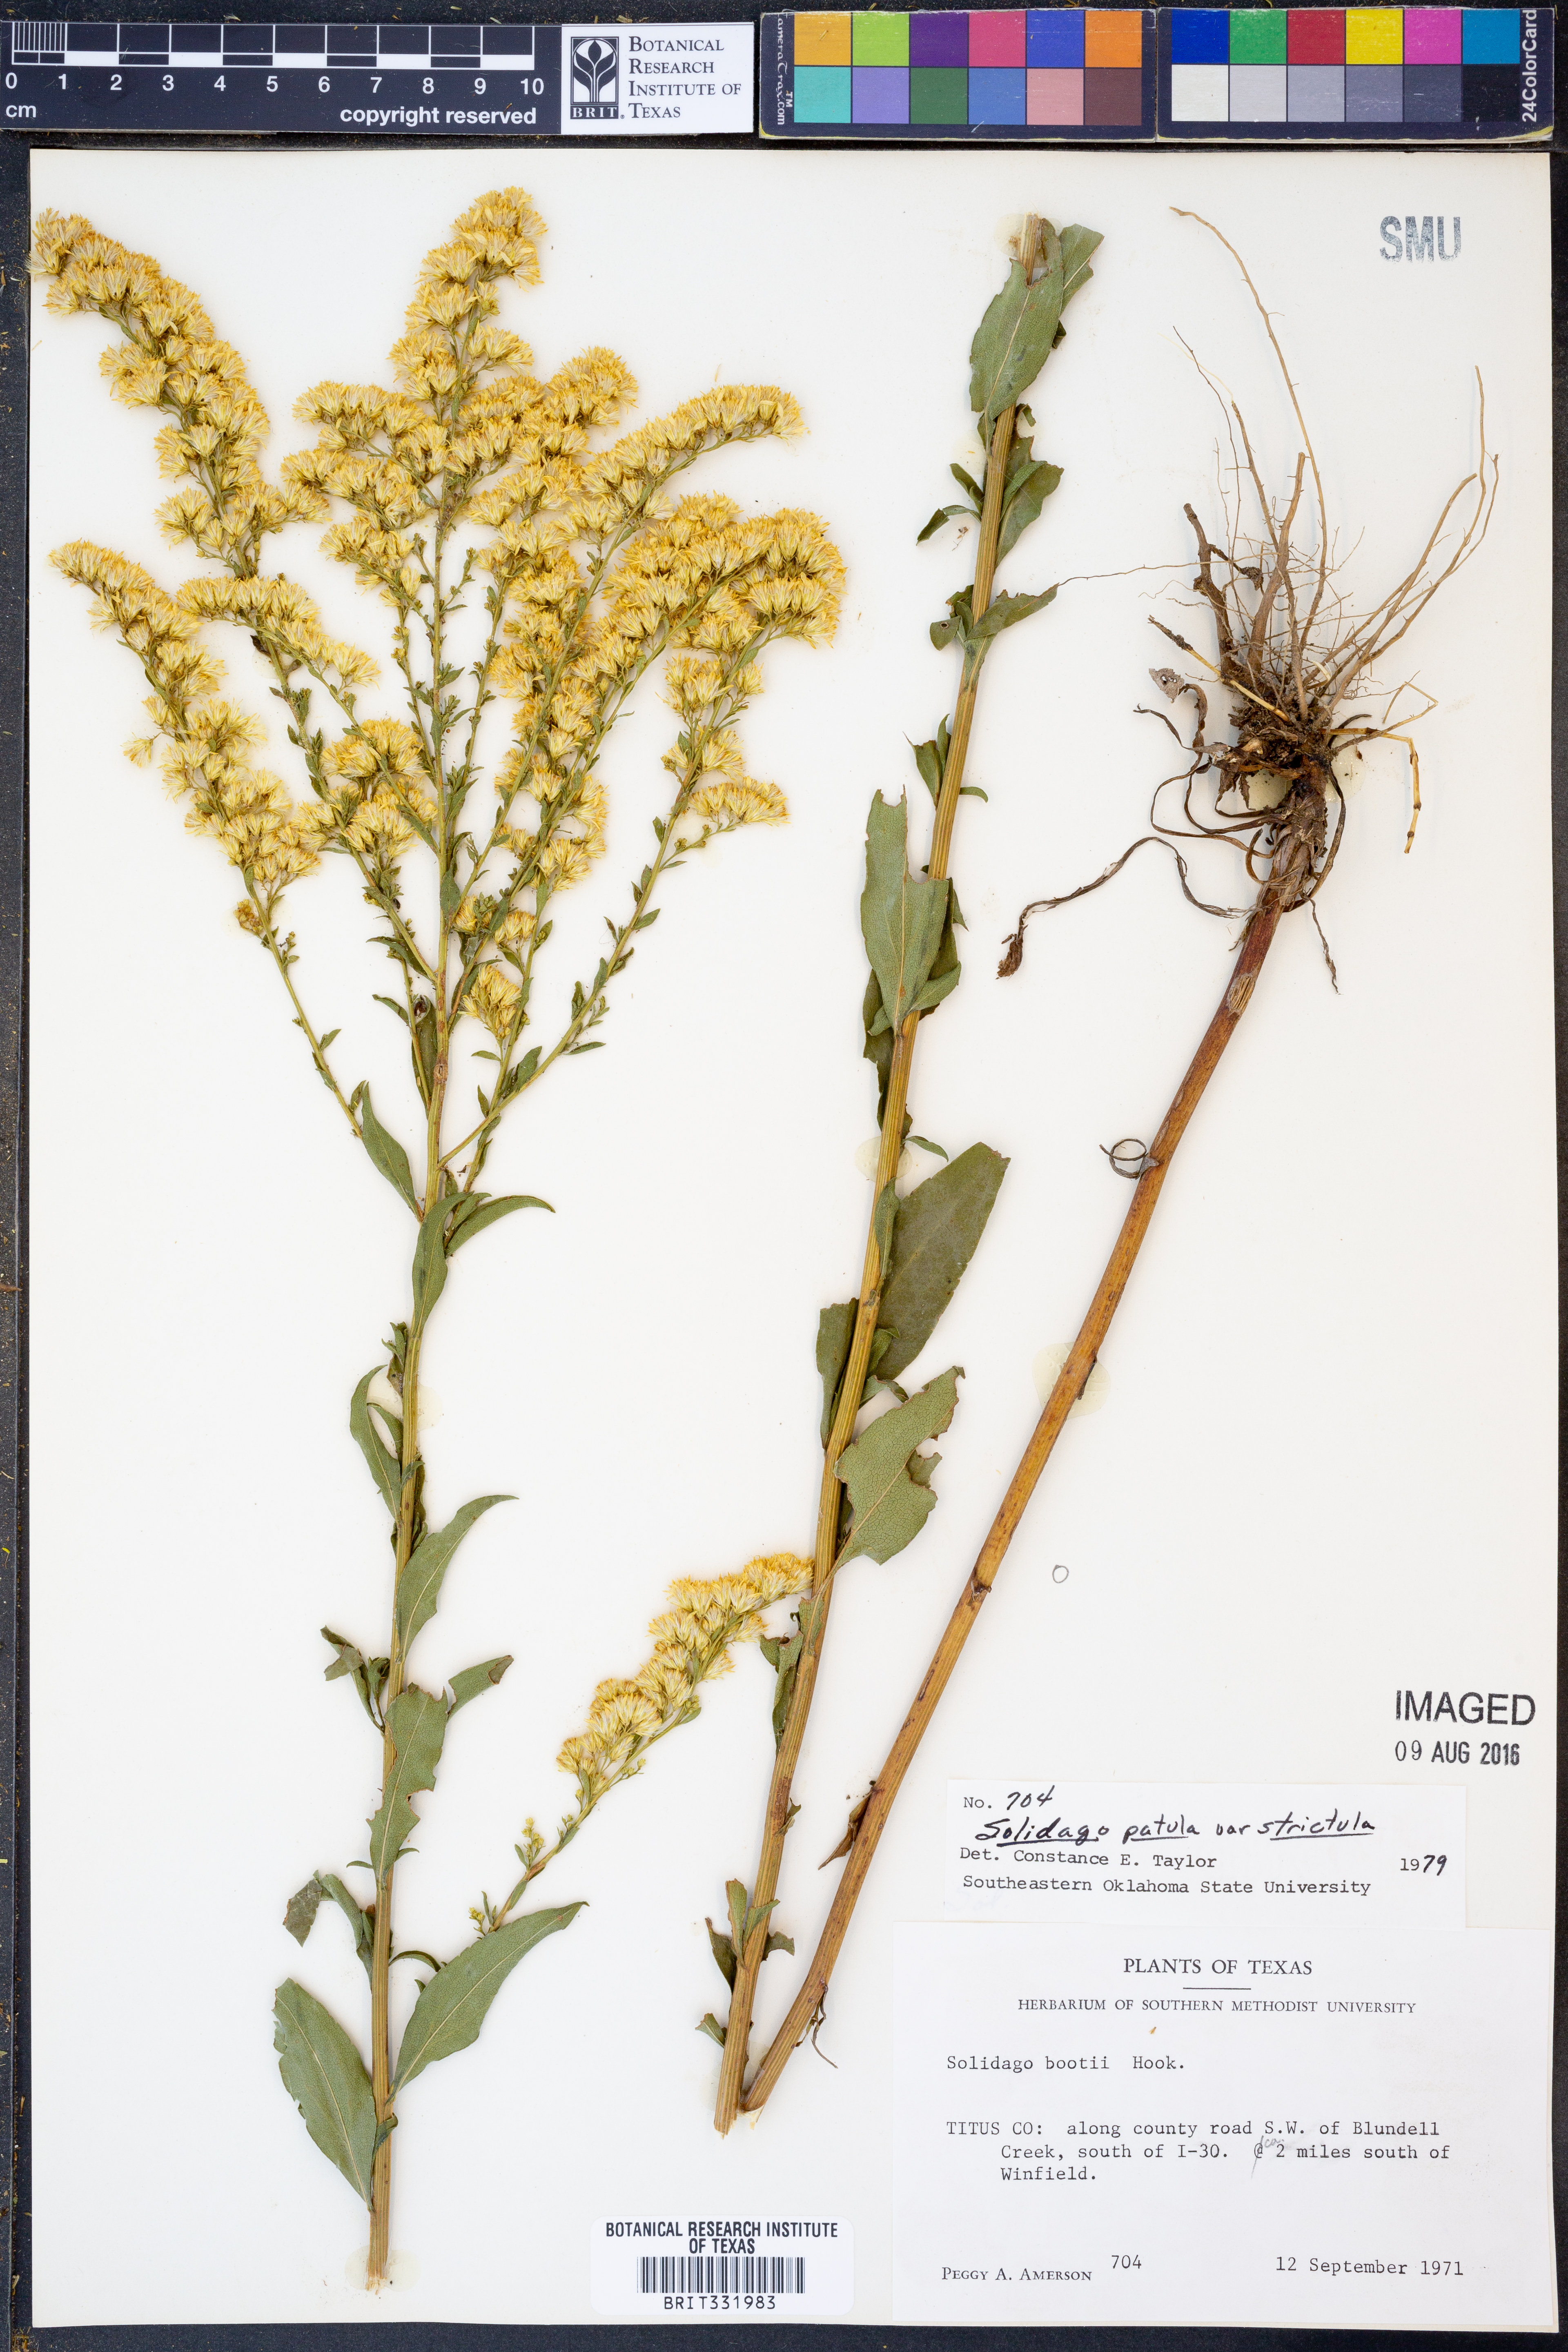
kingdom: Plantae
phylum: Tracheophyta
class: Magnoliopsida
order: Asterales
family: Asteraceae
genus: Solidago
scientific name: Solidago salicina
